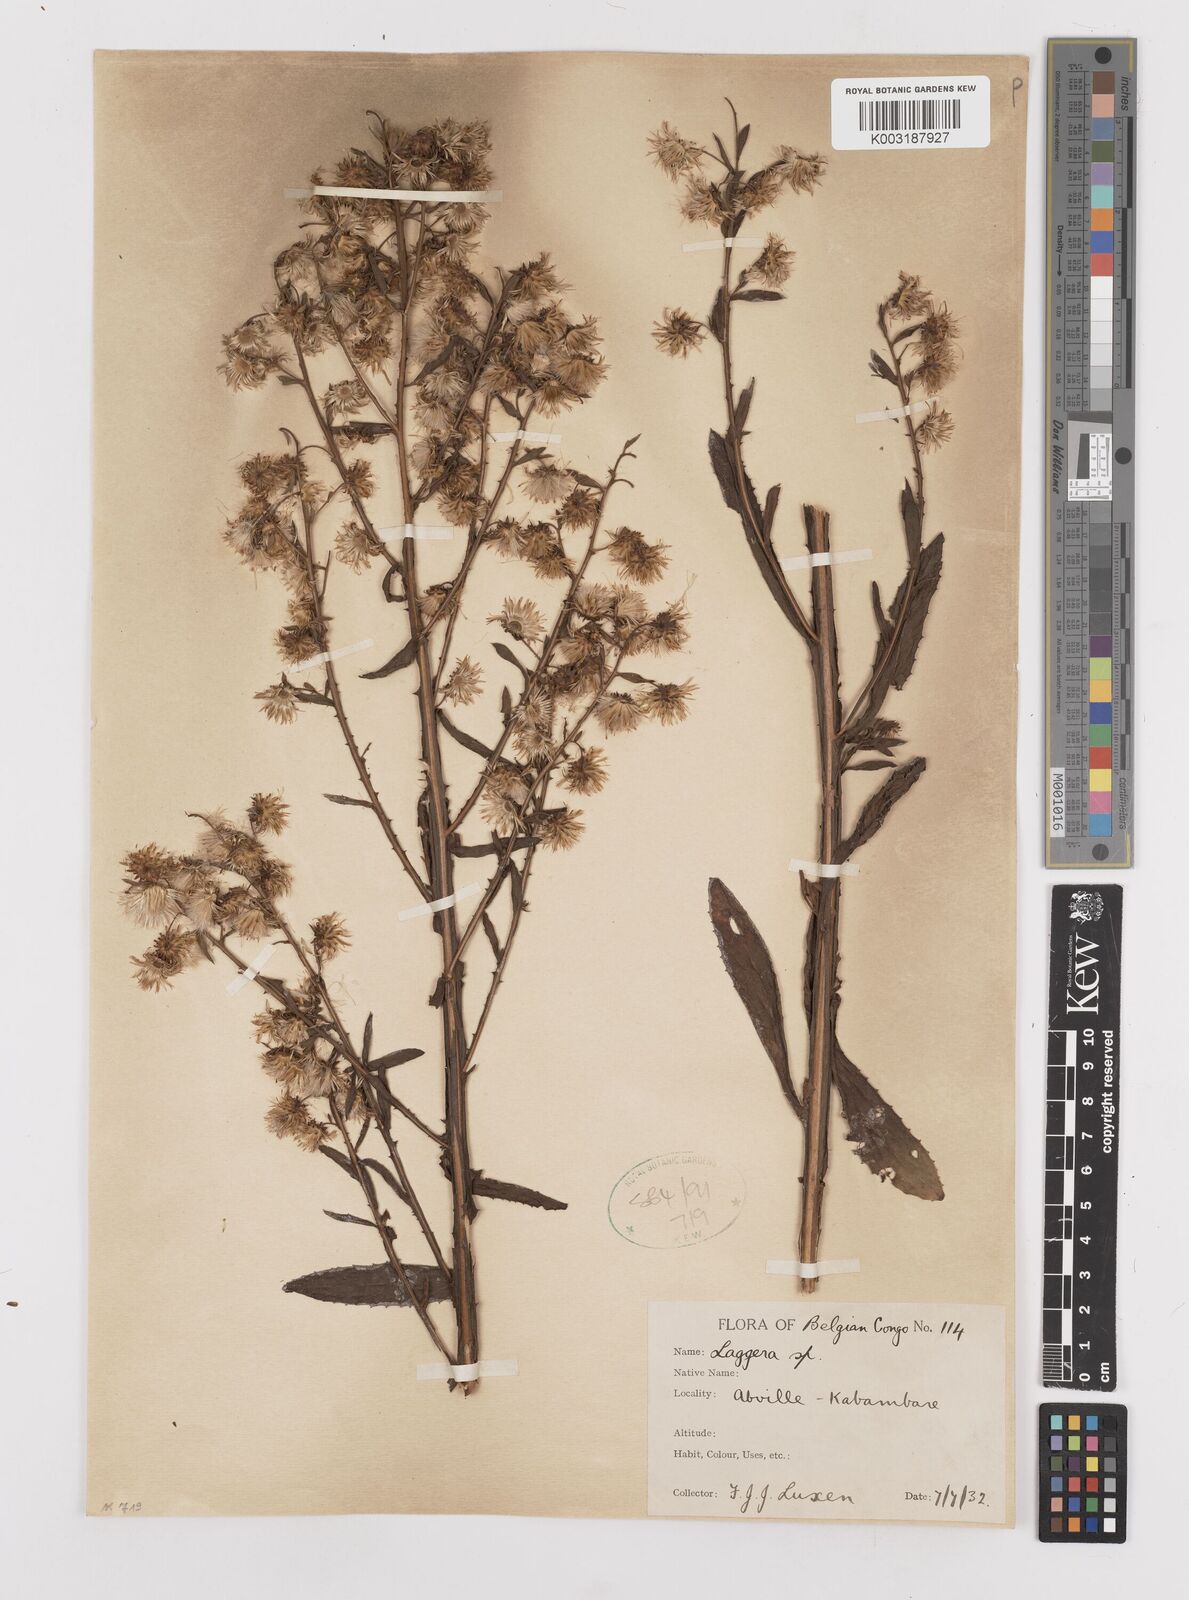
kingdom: Plantae
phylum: Tracheophyta
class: Magnoliopsida
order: Asterales
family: Asteraceae
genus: Laggera
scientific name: Laggera
